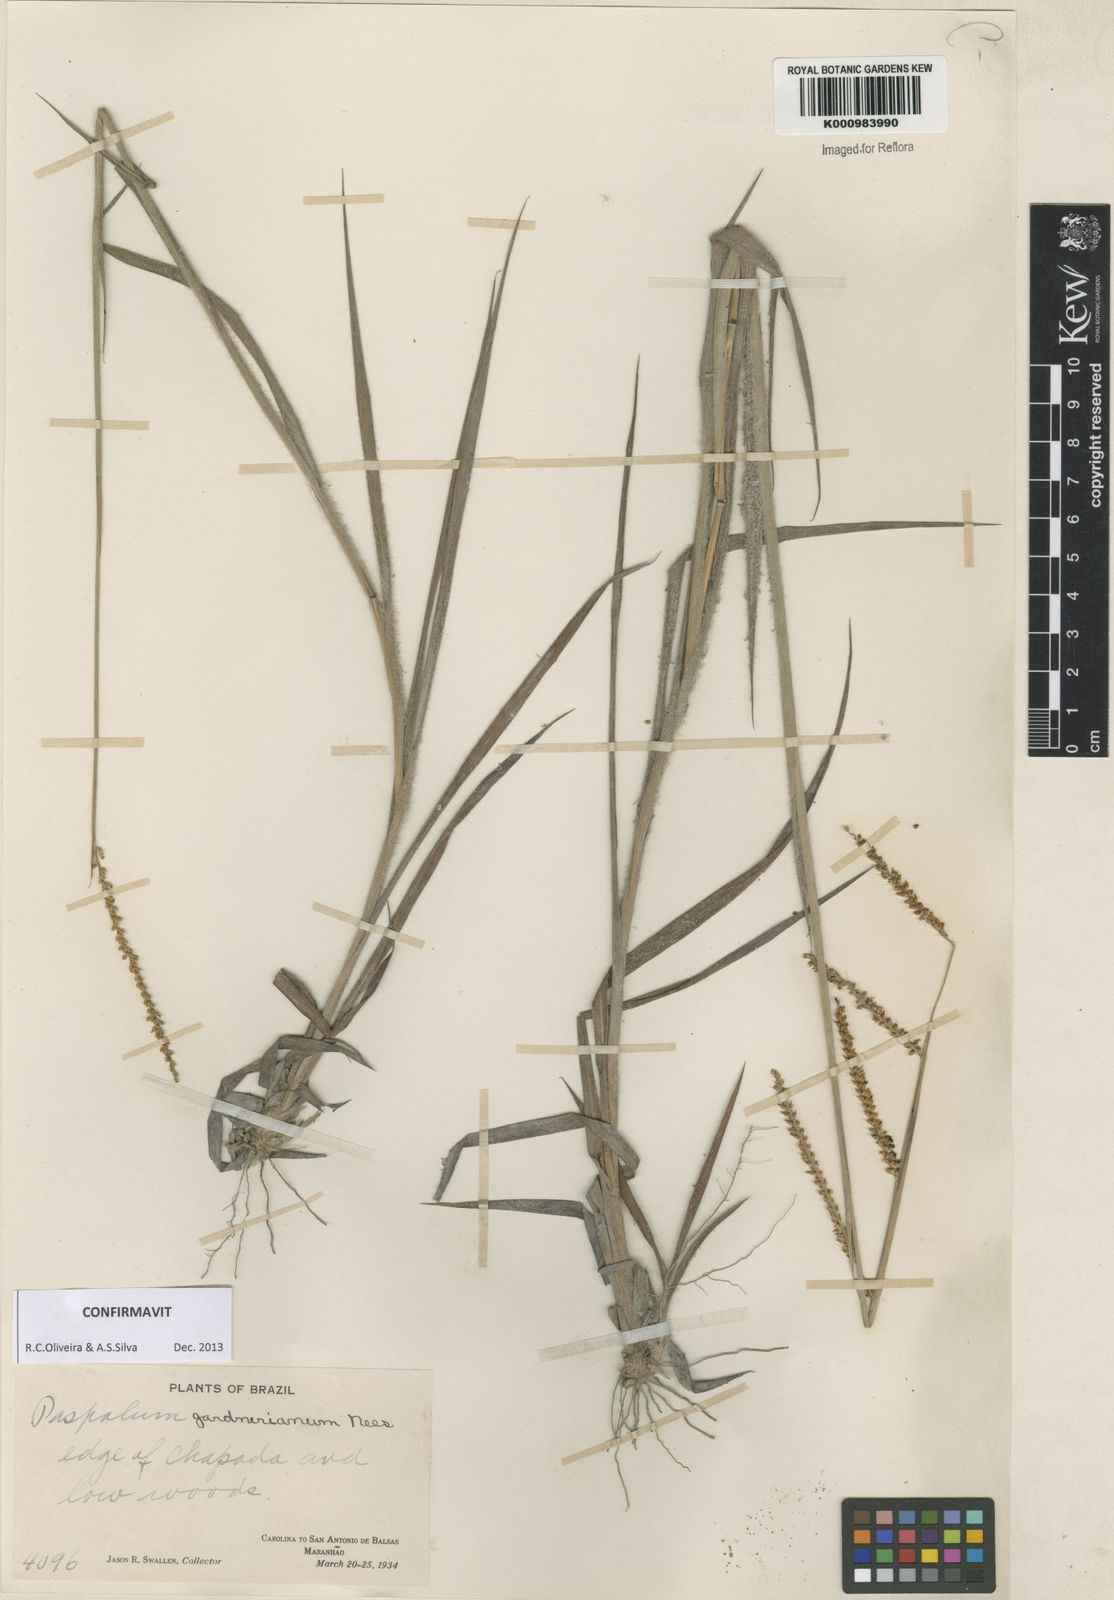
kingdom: Plantae
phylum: Tracheophyta
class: Liliopsida
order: Poales
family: Poaceae
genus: Paspalum
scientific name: Paspalum gardnerianum
